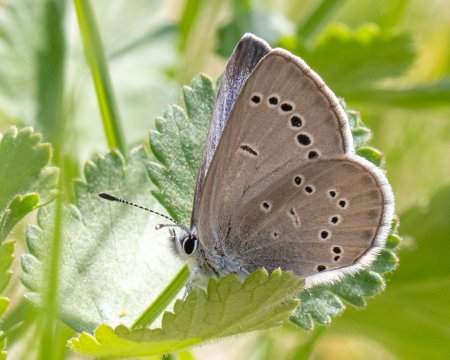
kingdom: Animalia
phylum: Arthropoda
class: Insecta
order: Lepidoptera
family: Lycaenidae
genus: Glaucopsyche
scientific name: Glaucopsyche lygdamus
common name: Silvery Blue
